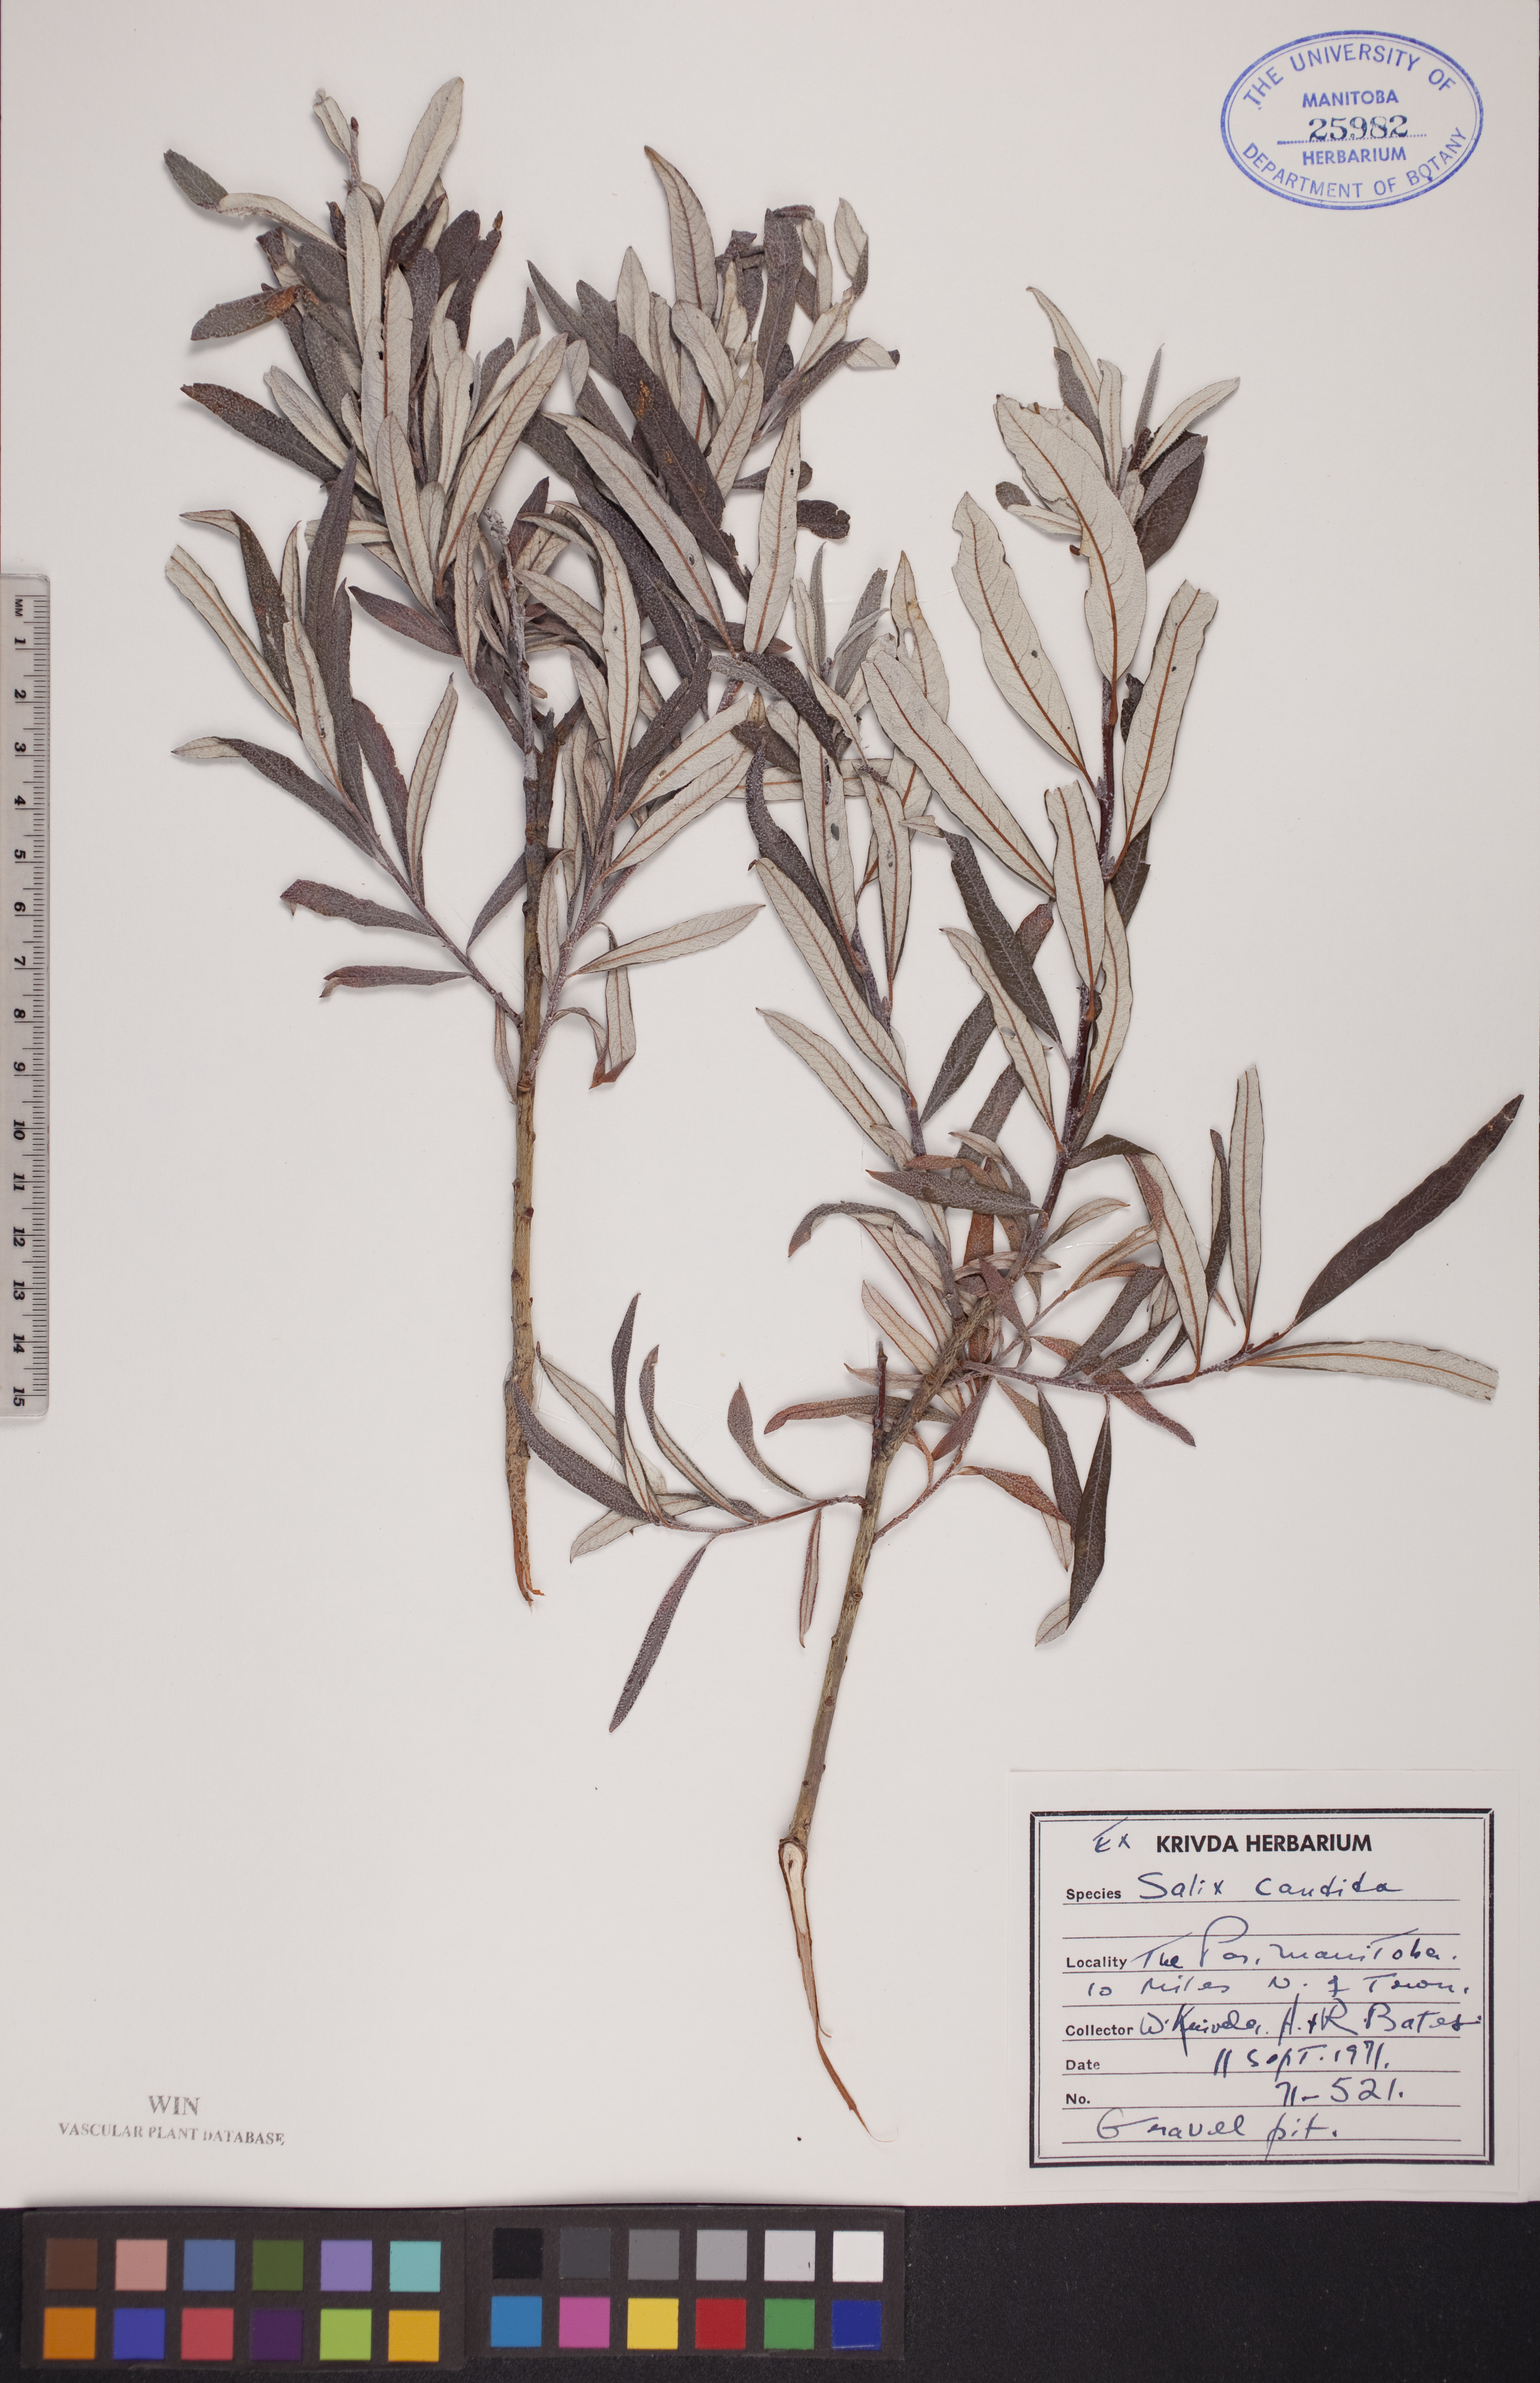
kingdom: Plantae
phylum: Tracheophyta
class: Magnoliopsida
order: Malpighiales
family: Salicaceae
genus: Salix
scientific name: Salix candida
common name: Hoary willow
